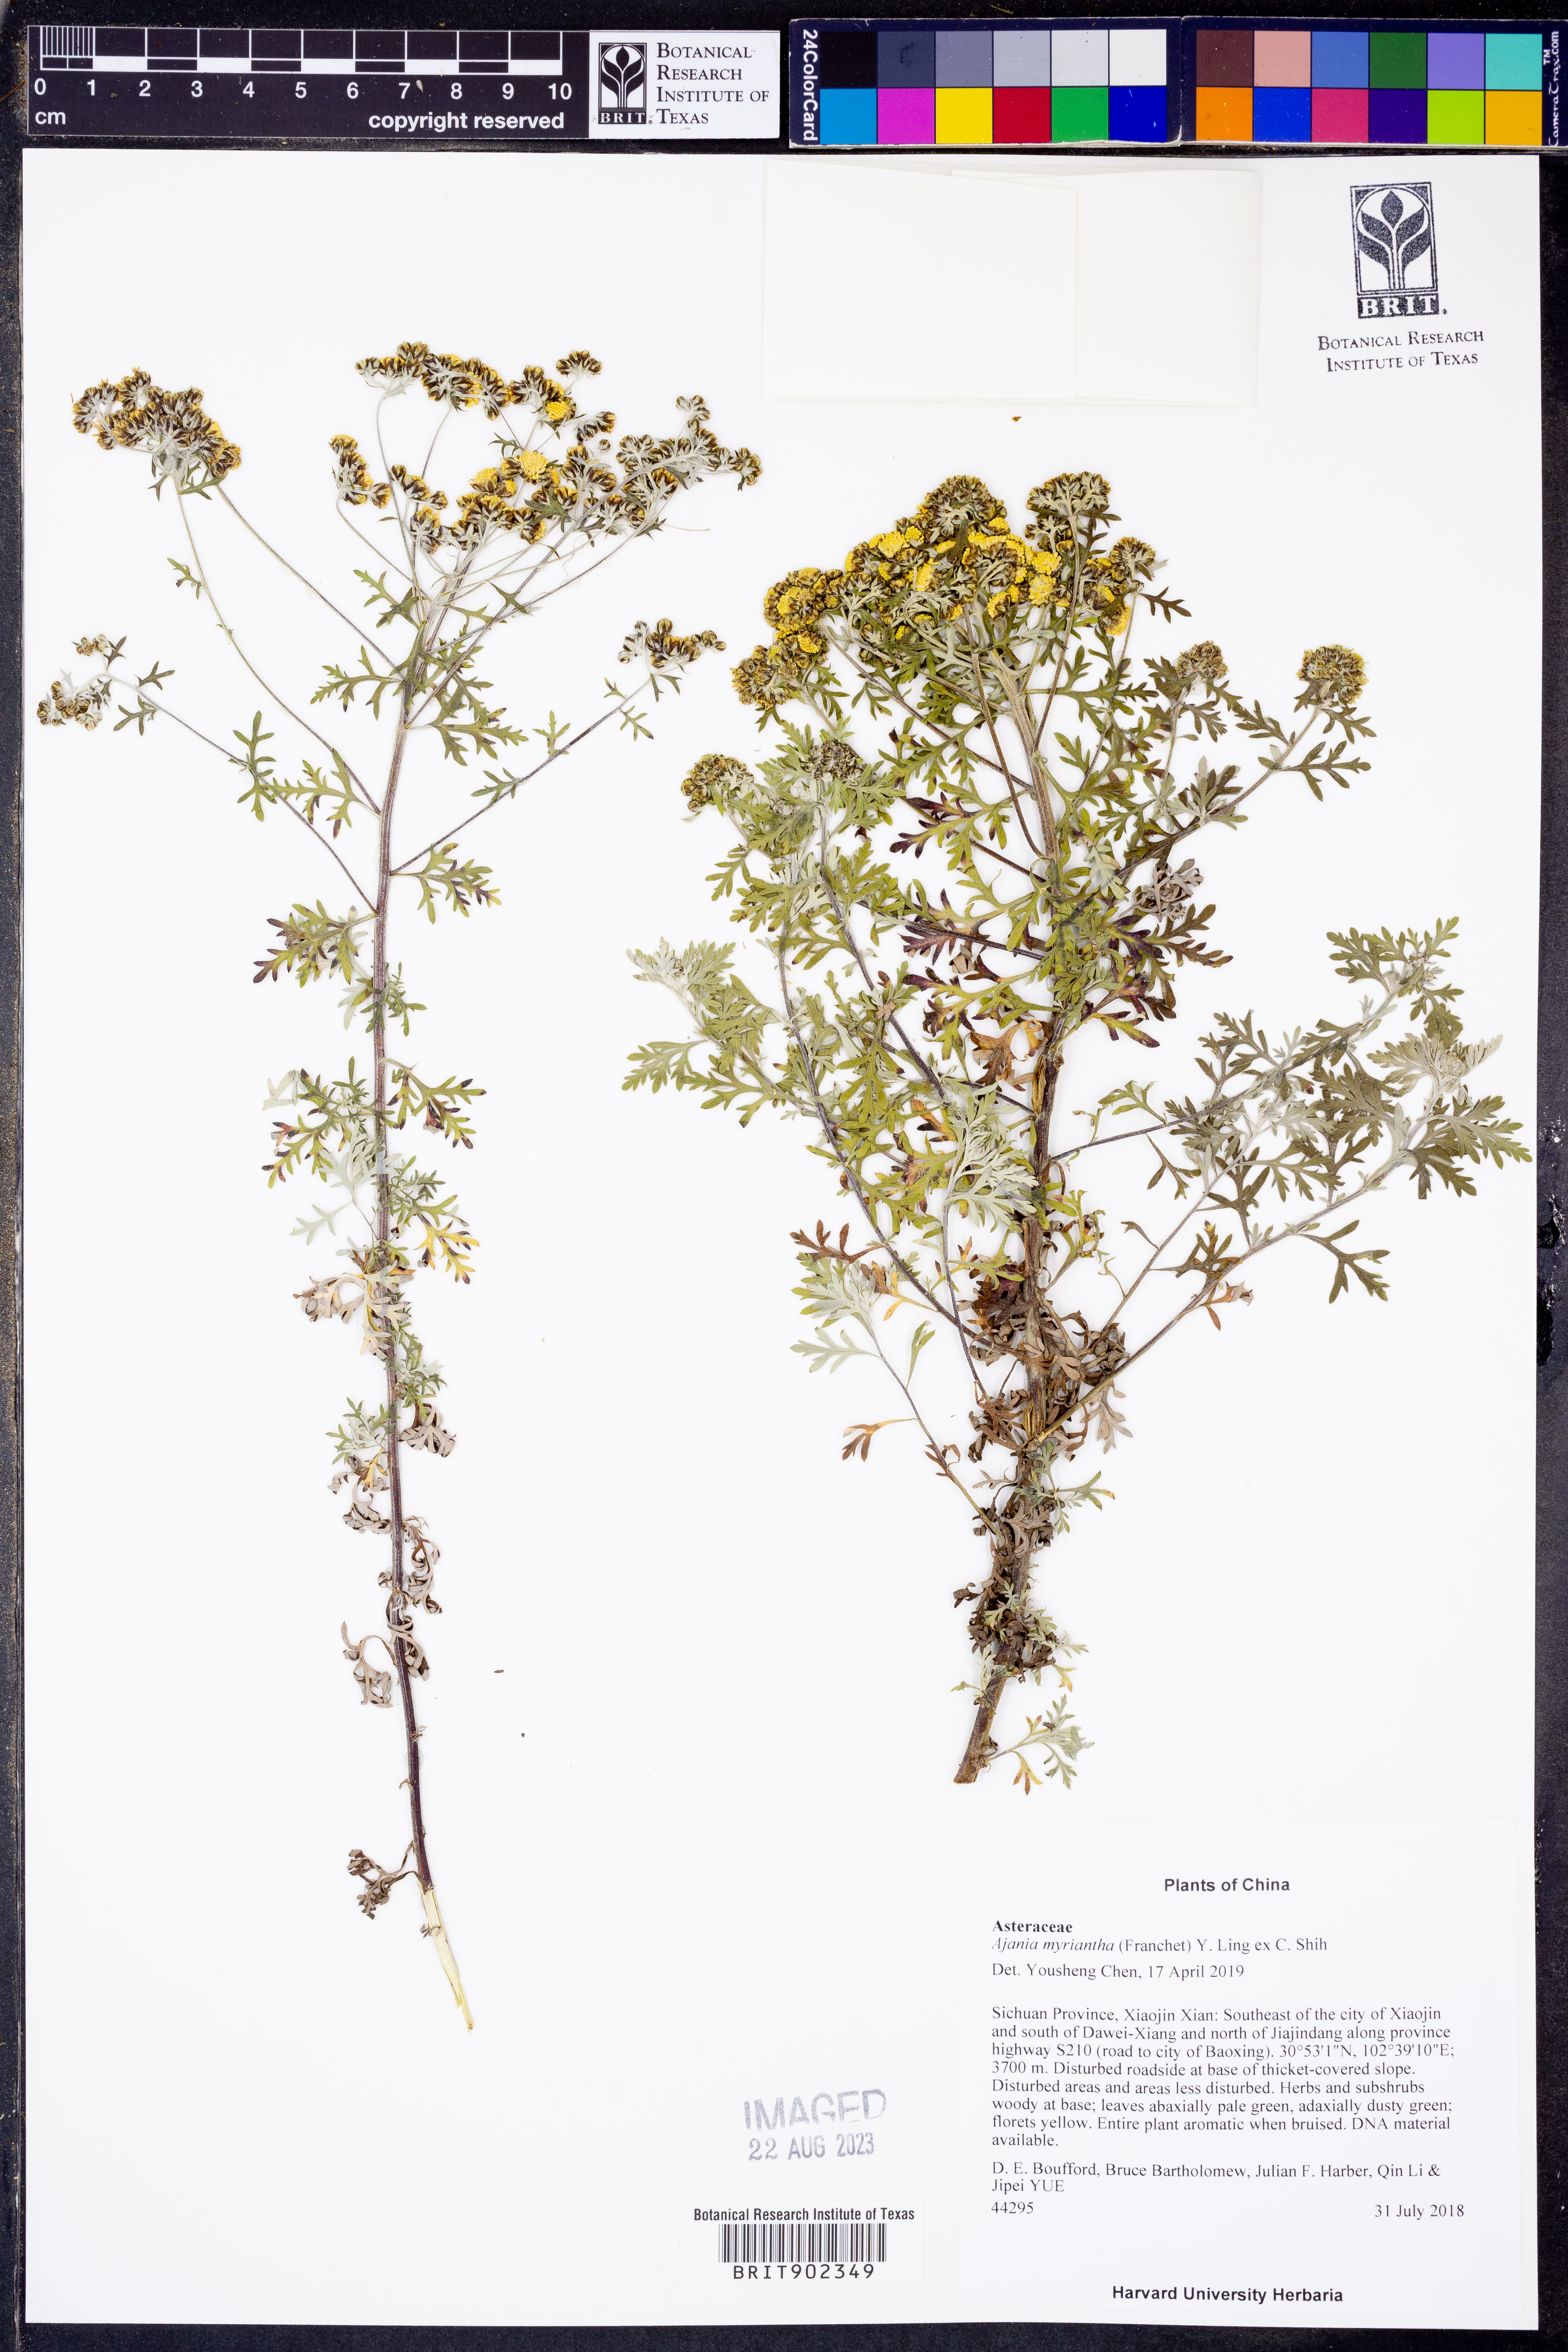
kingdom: Plantae
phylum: Tracheophyta
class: Magnoliopsida
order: Asterales
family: Asteraceae
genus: Ajania
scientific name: Ajania
